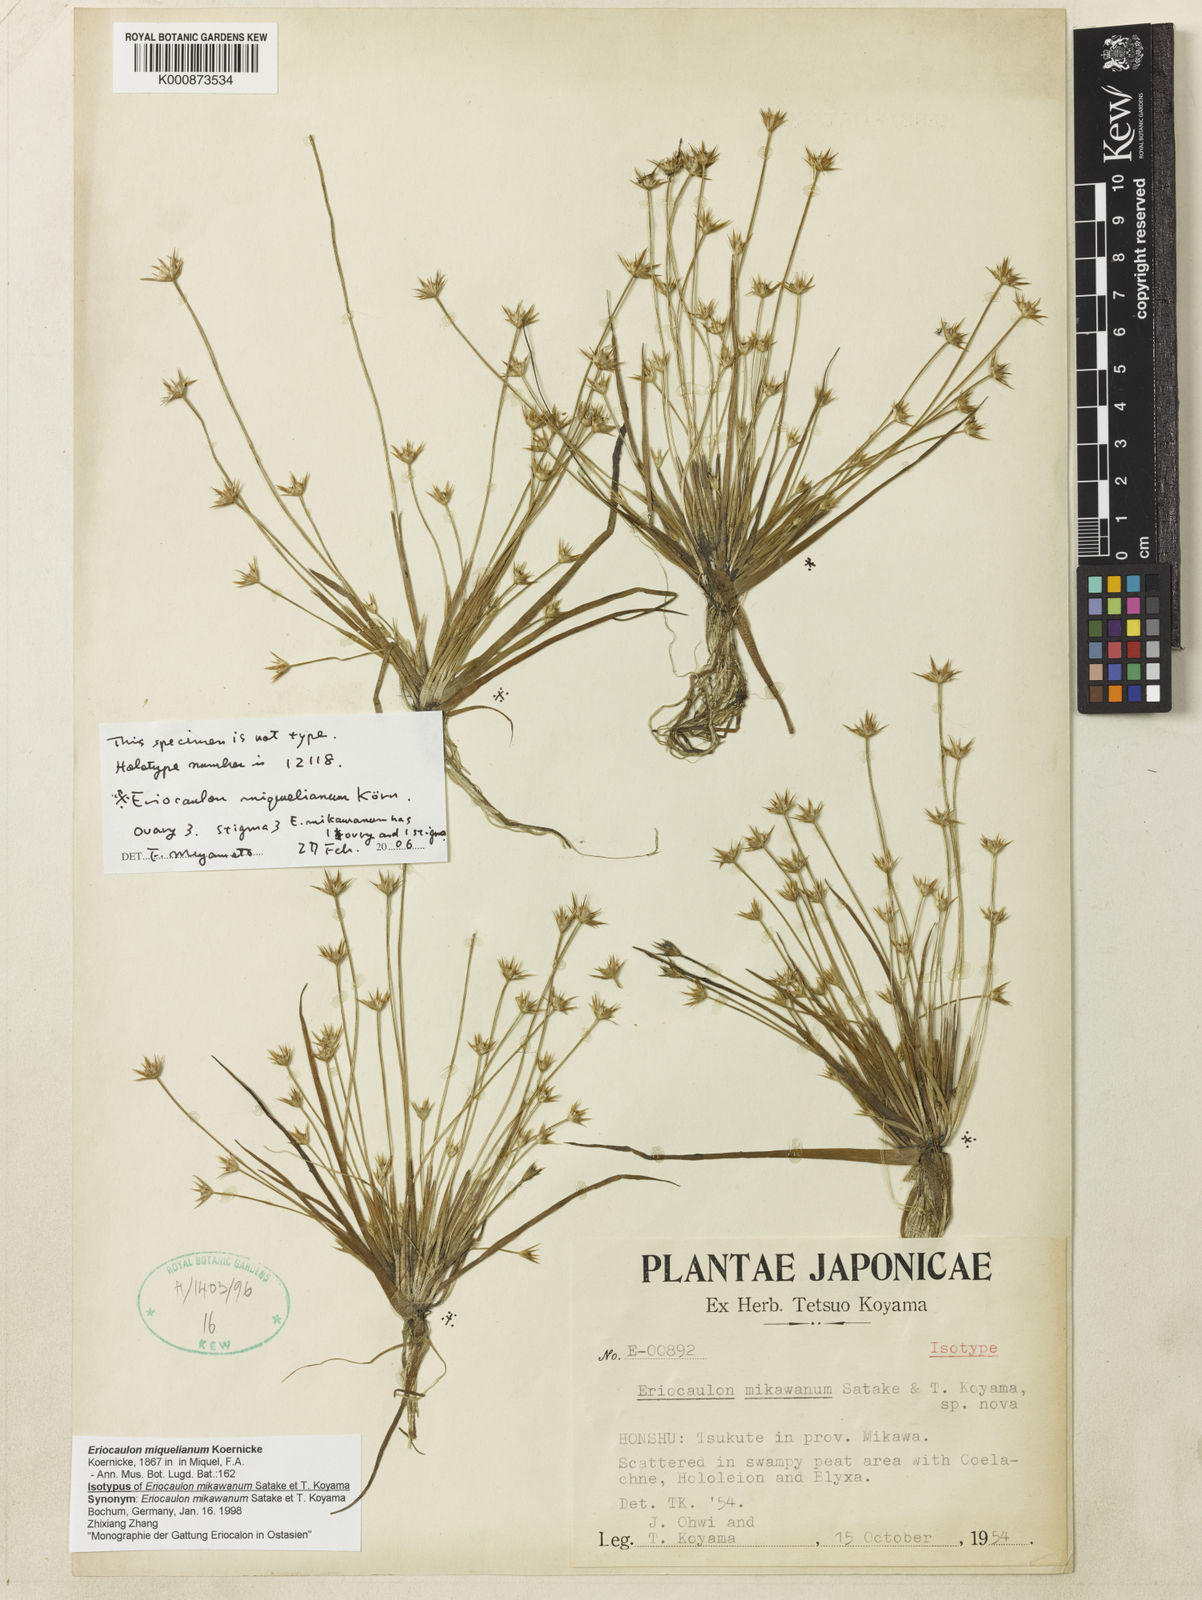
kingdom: Plantae
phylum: Tracheophyta
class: Liliopsida
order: Poales
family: Eriocaulaceae
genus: Eriocaulon
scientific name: Eriocaulon
